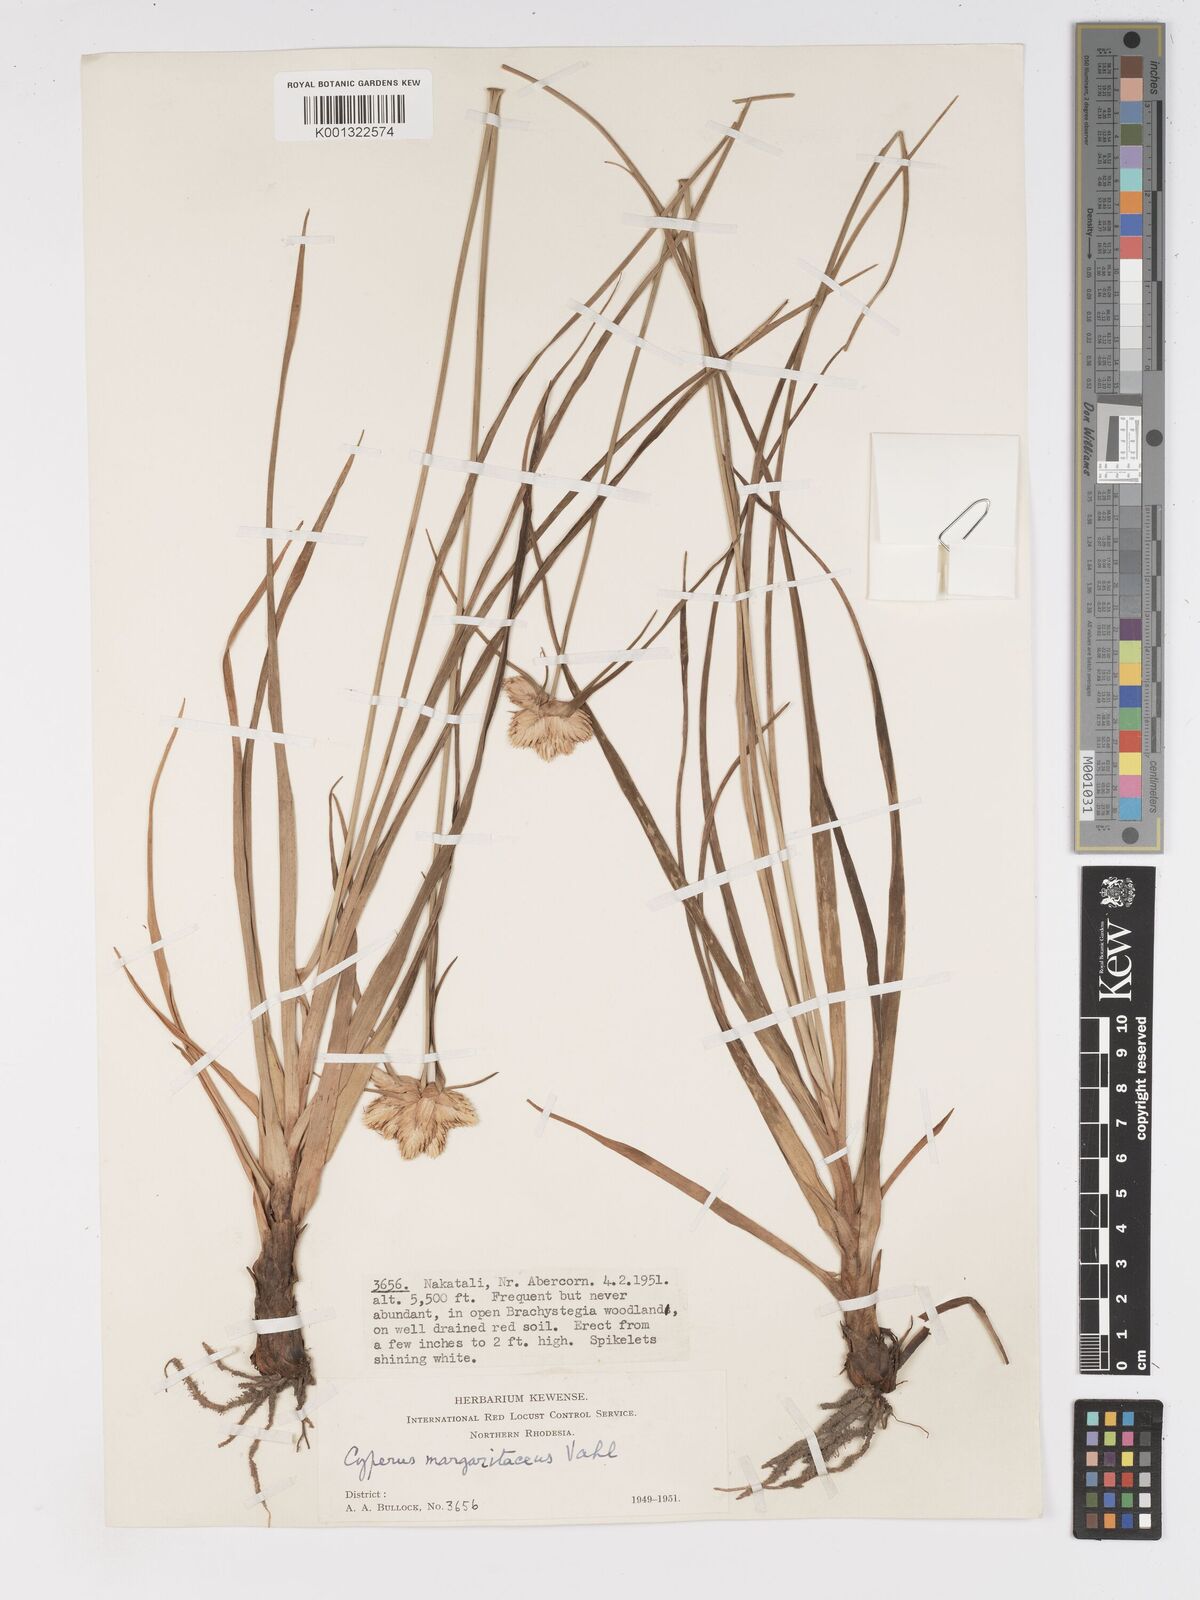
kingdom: Plantae
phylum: Tracheophyta
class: Liliopsida
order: Poales
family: Cyperaceae
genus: Cyperus
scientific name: Cyperus niveus
